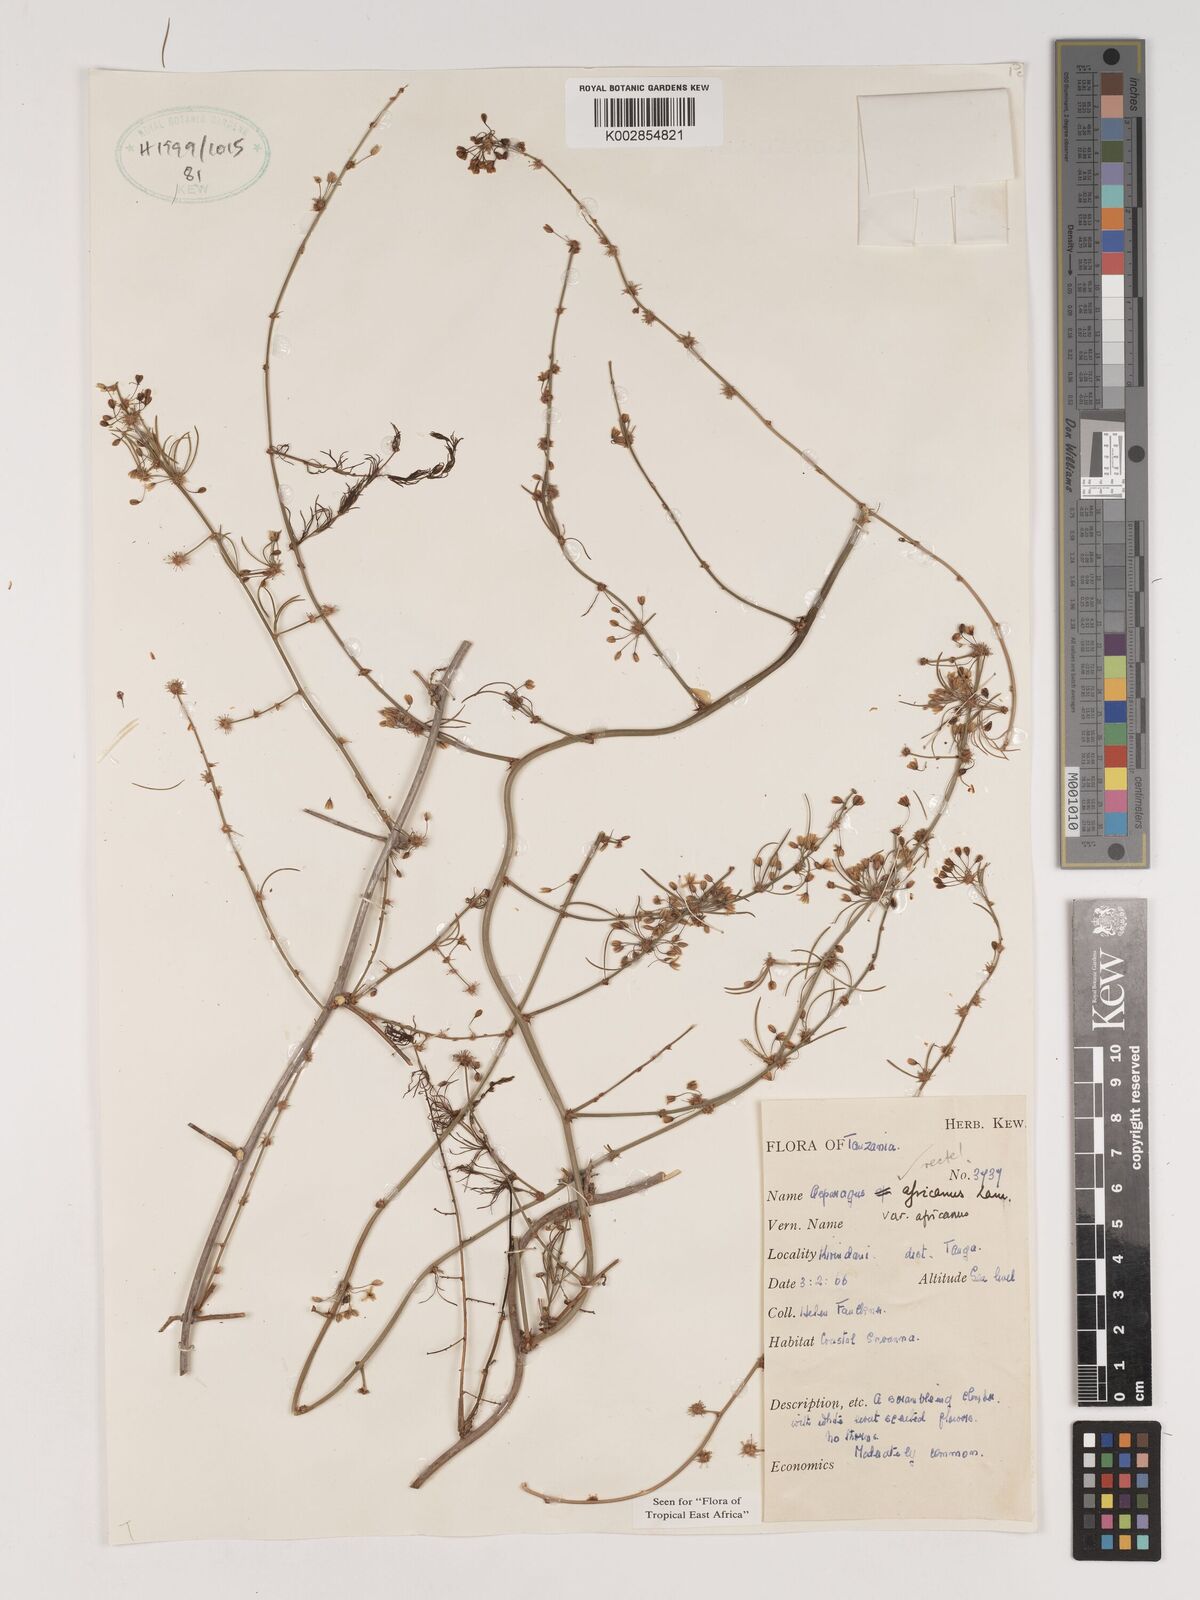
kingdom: Plantae
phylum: Tracheophyta
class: Liliopsida
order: Asparagales
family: Asparagaceae
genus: Asparagus
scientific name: Asparagus africanus
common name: Asparagus-fern
